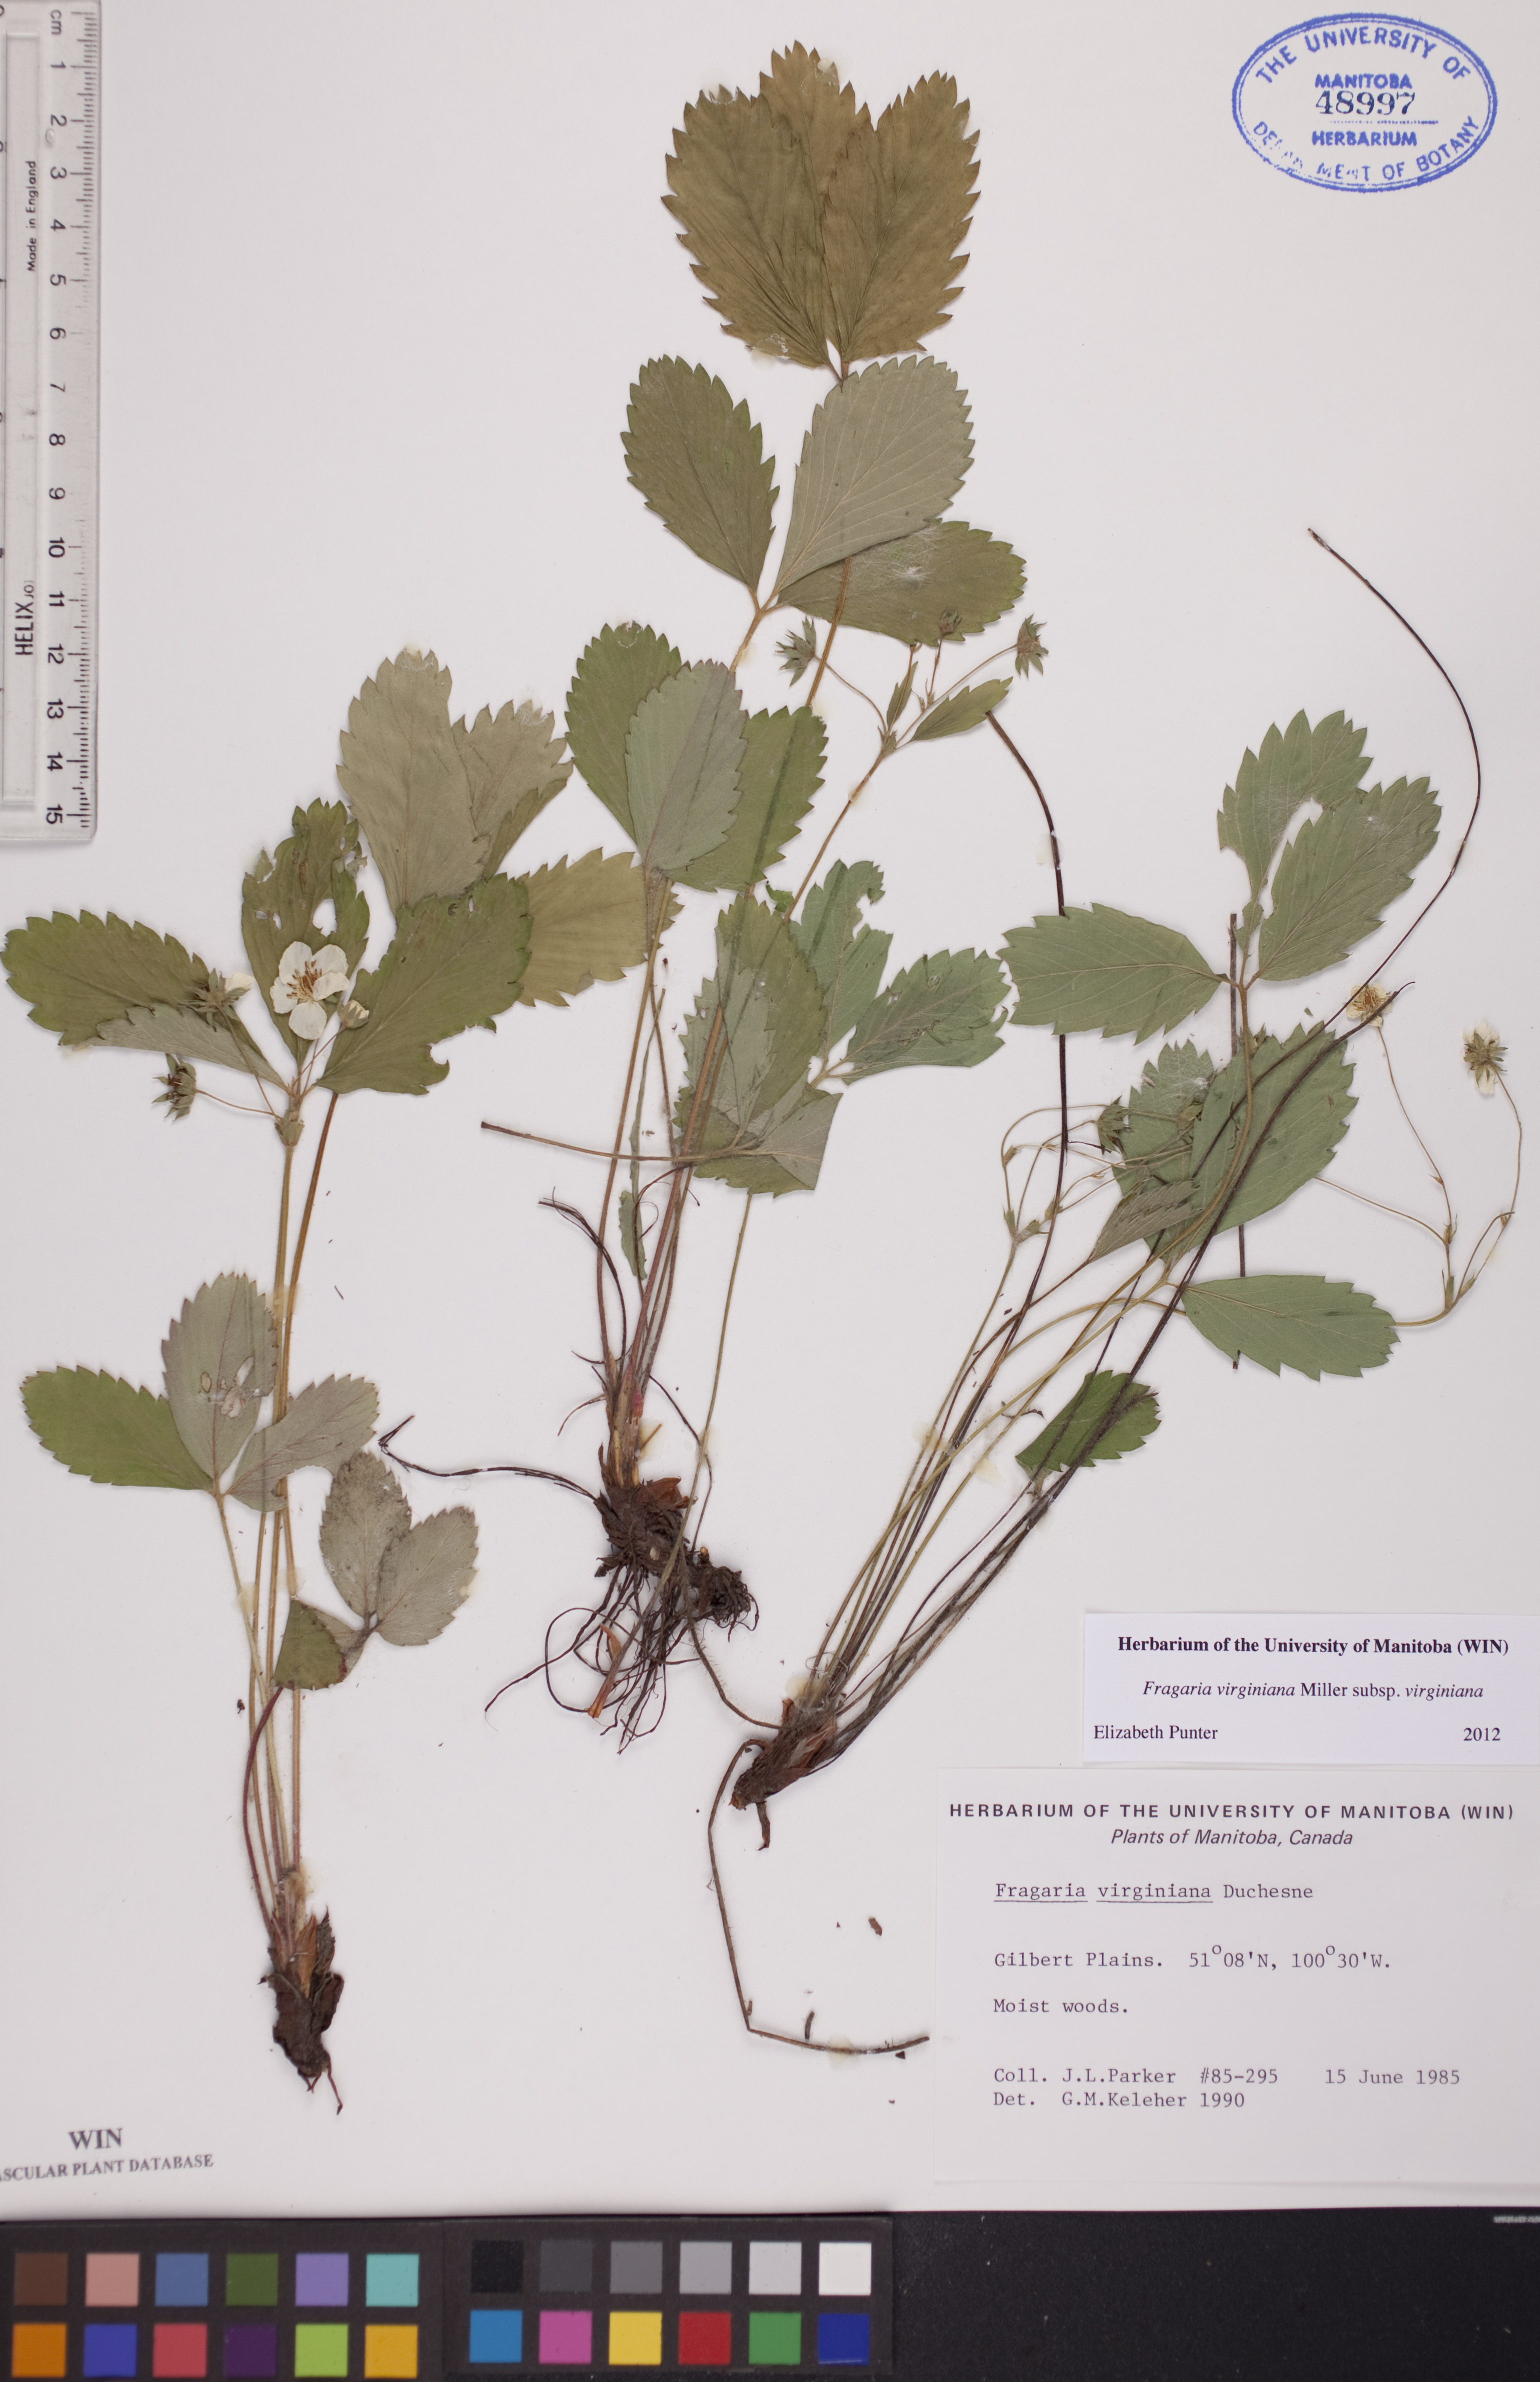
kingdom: Plantae
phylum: Tracheophyta
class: Magnoliopsida
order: Rosales
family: Rosaceae
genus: Fragaria
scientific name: Fragaria virginiana
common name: Thickleaved wild strawberry
